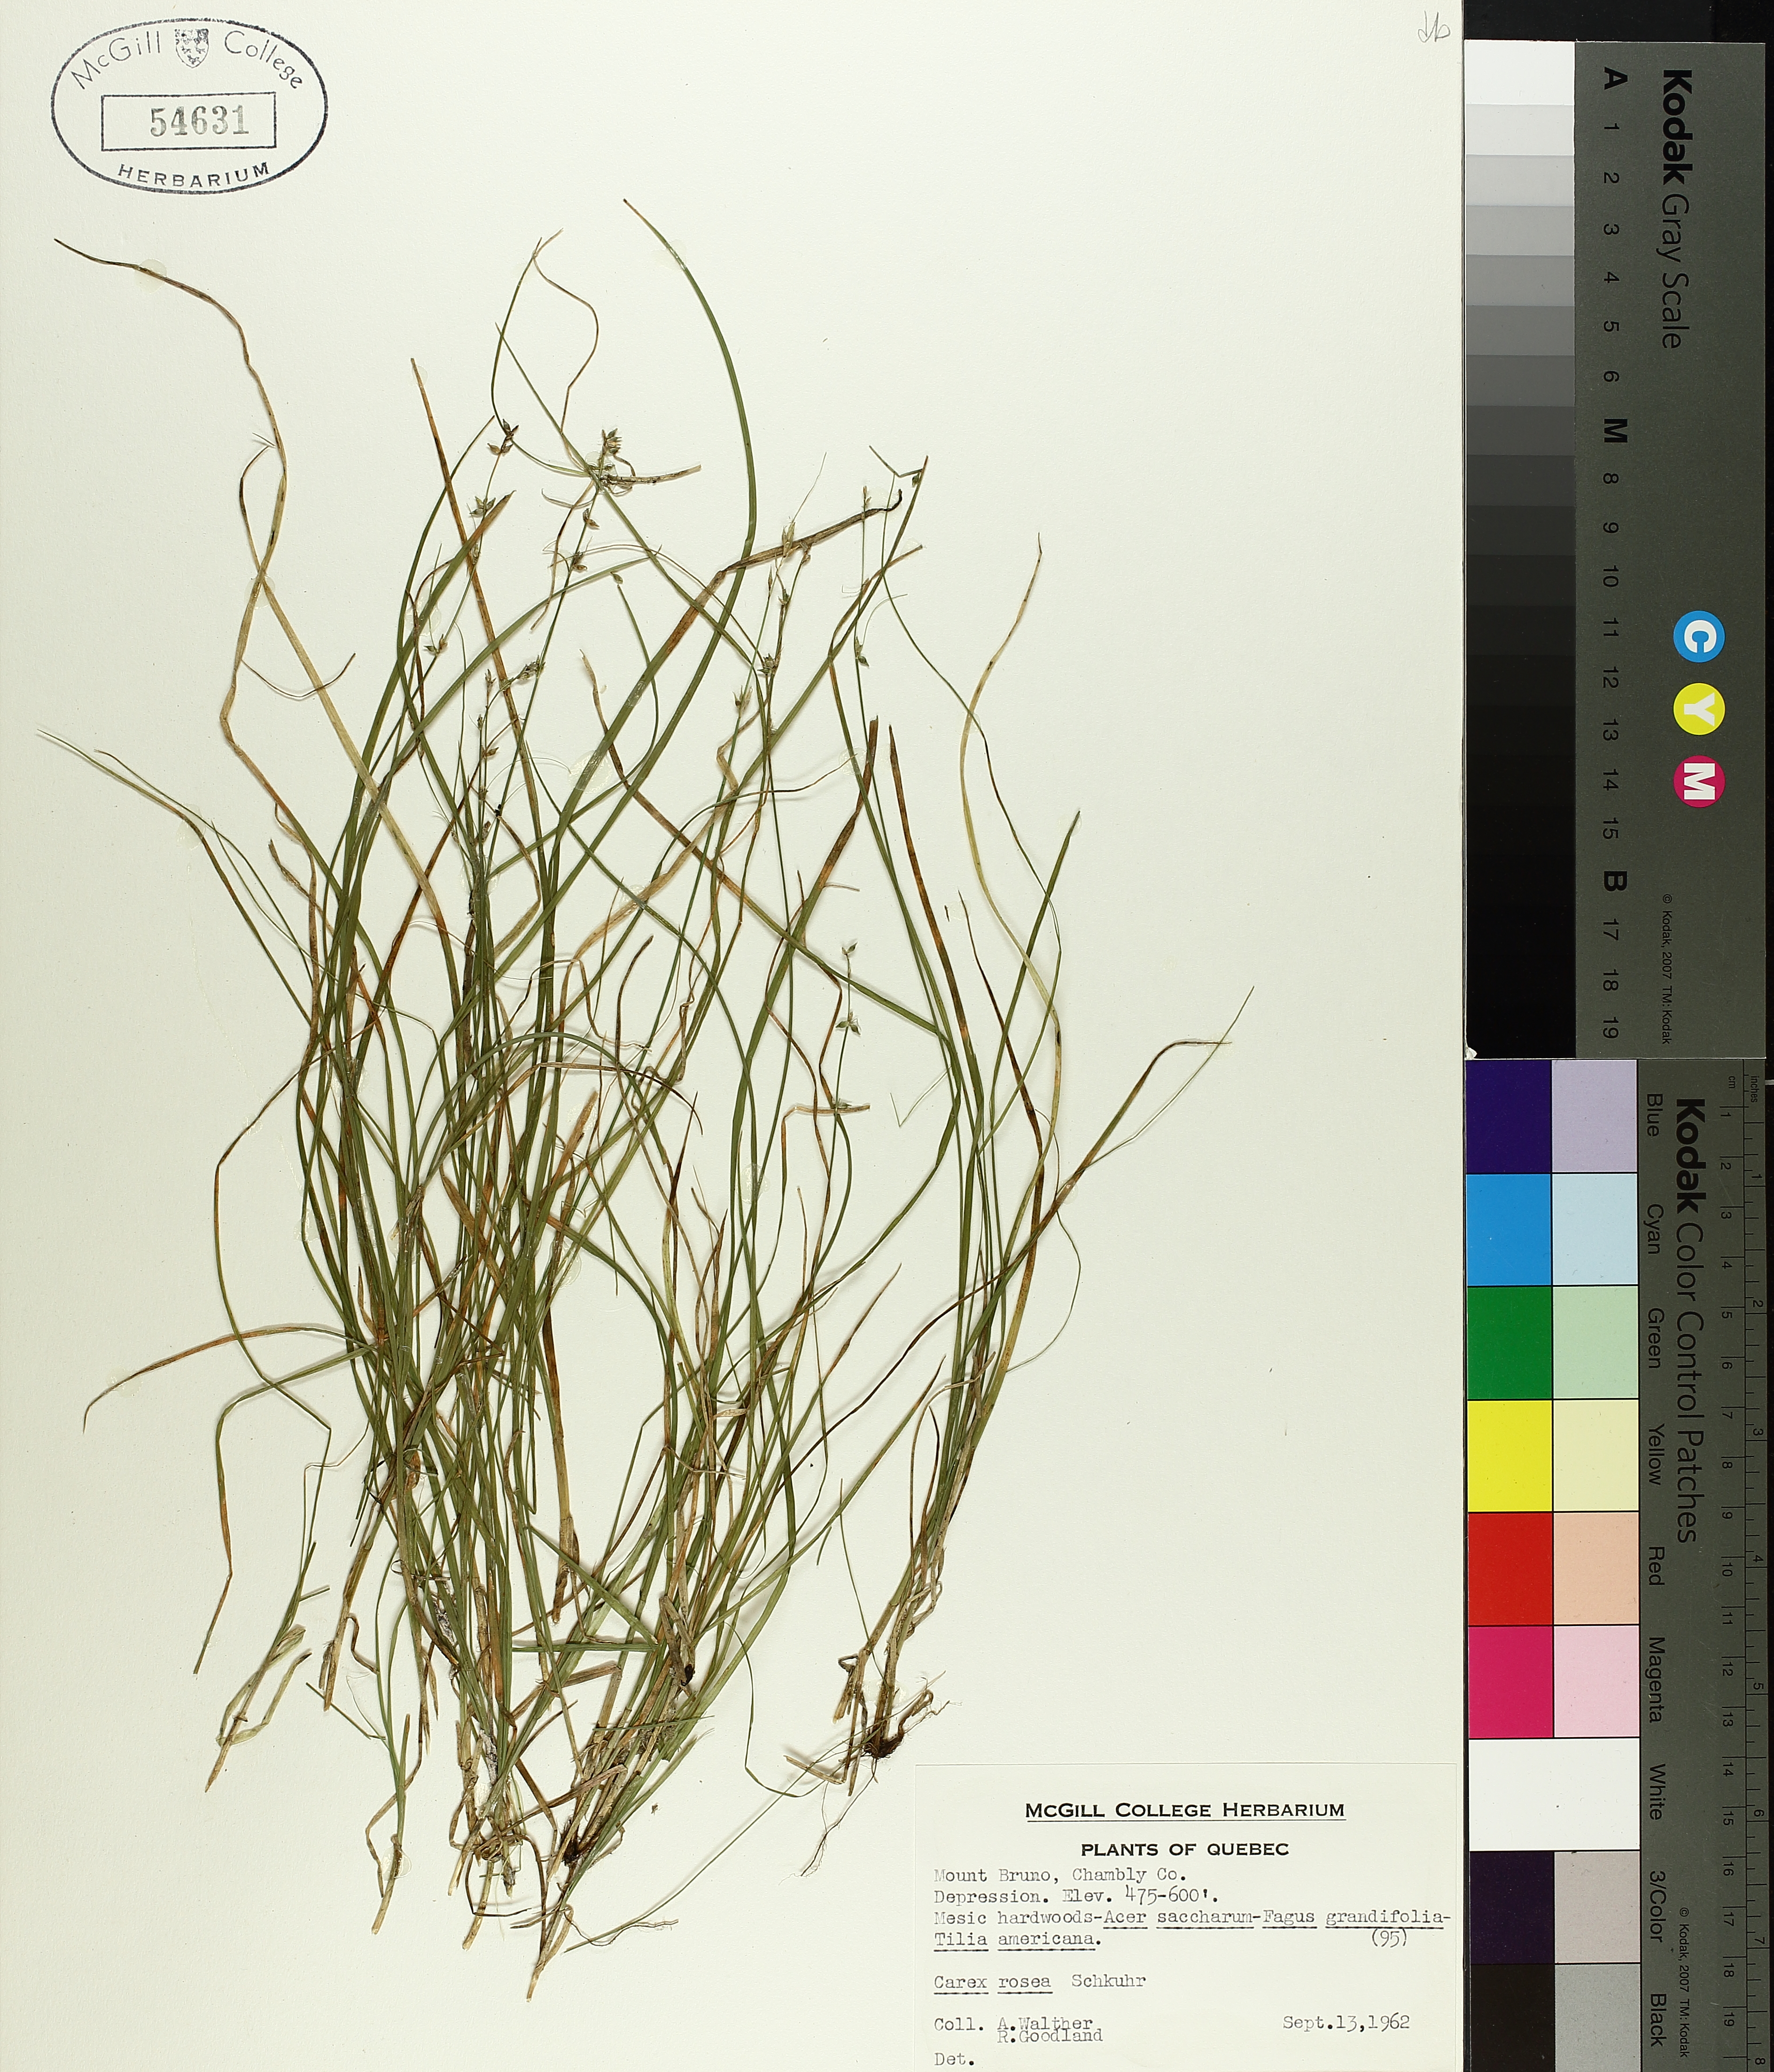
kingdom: Plantae
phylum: Tracheophyta
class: Liliopsida
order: Poales
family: Cyperaceae
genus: Carex
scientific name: Carex rosea
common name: Curly-styled wood sedge
